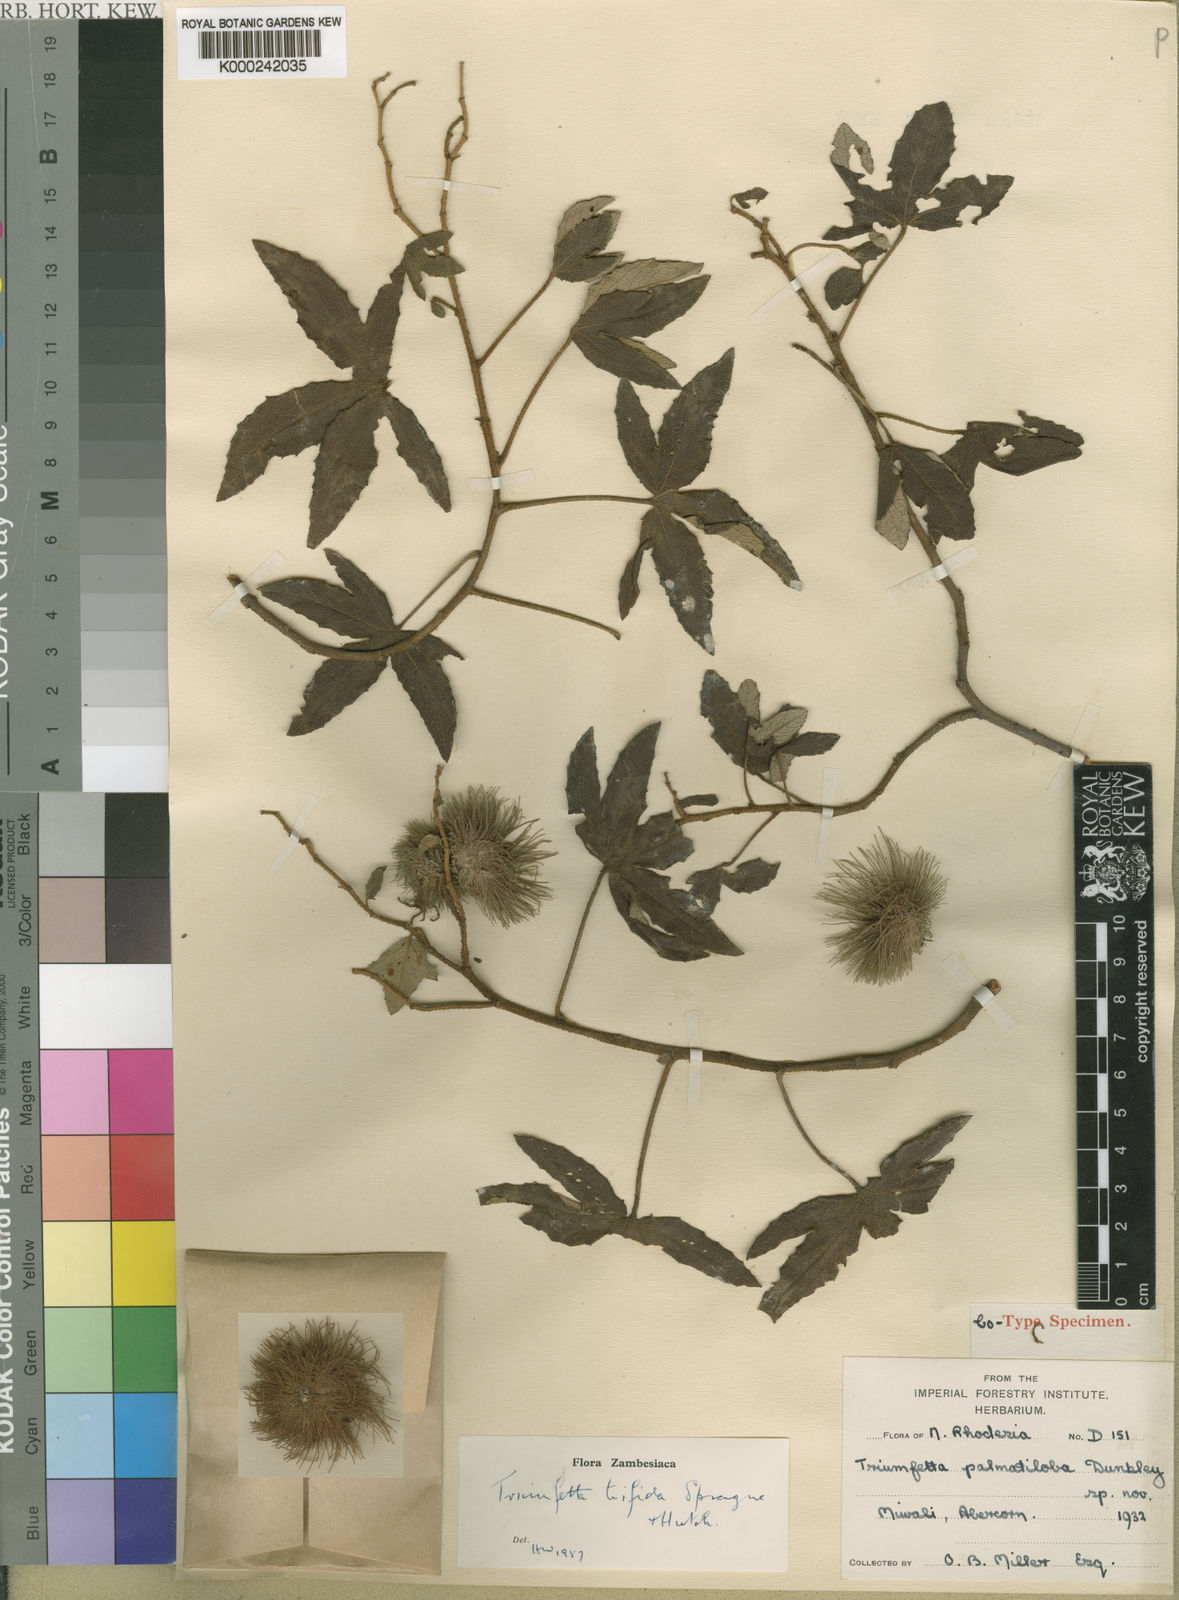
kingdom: Plantae
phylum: Tracheophyta
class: Magnoliopsida
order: Malvales
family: Malvaceae
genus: Triumfetta
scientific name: Triumfetta trifida
